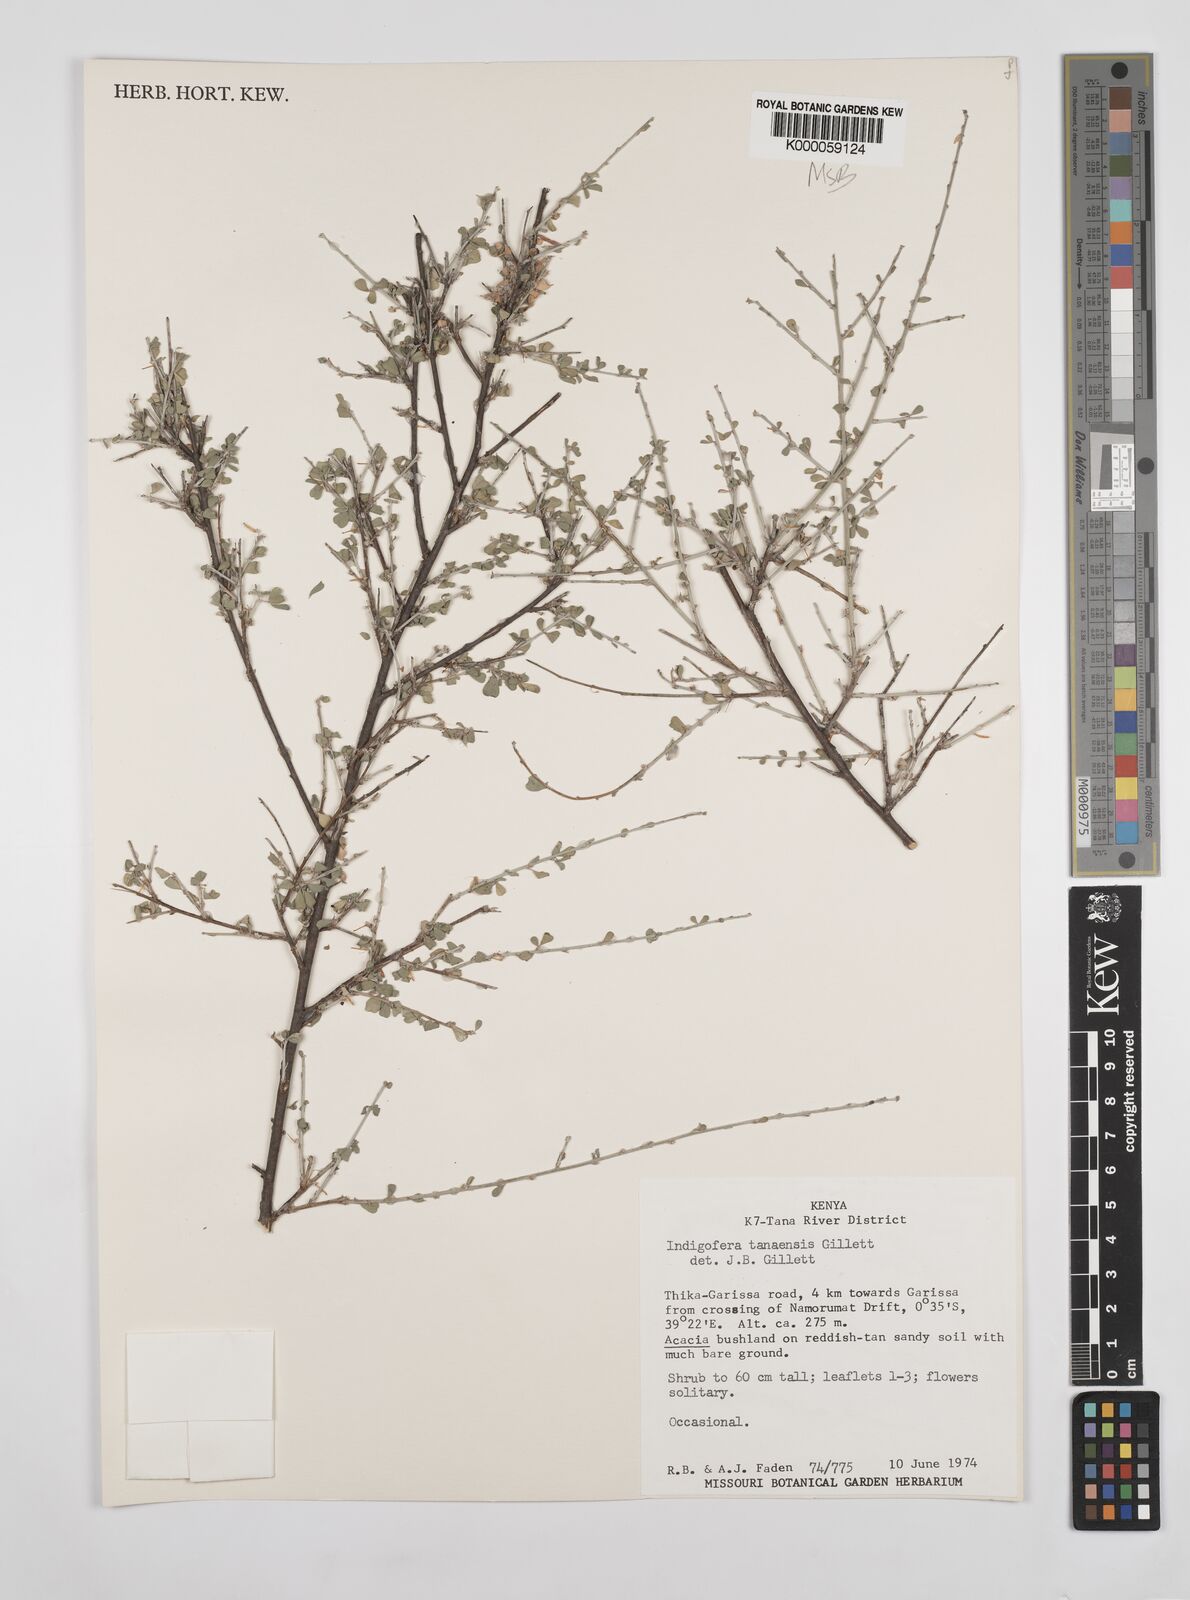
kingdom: Plantae
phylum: Tracheophyta
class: Magnoliopsida
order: Fabales
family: Fabaceae
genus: Indigofera
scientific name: Indigofera tanaensis
